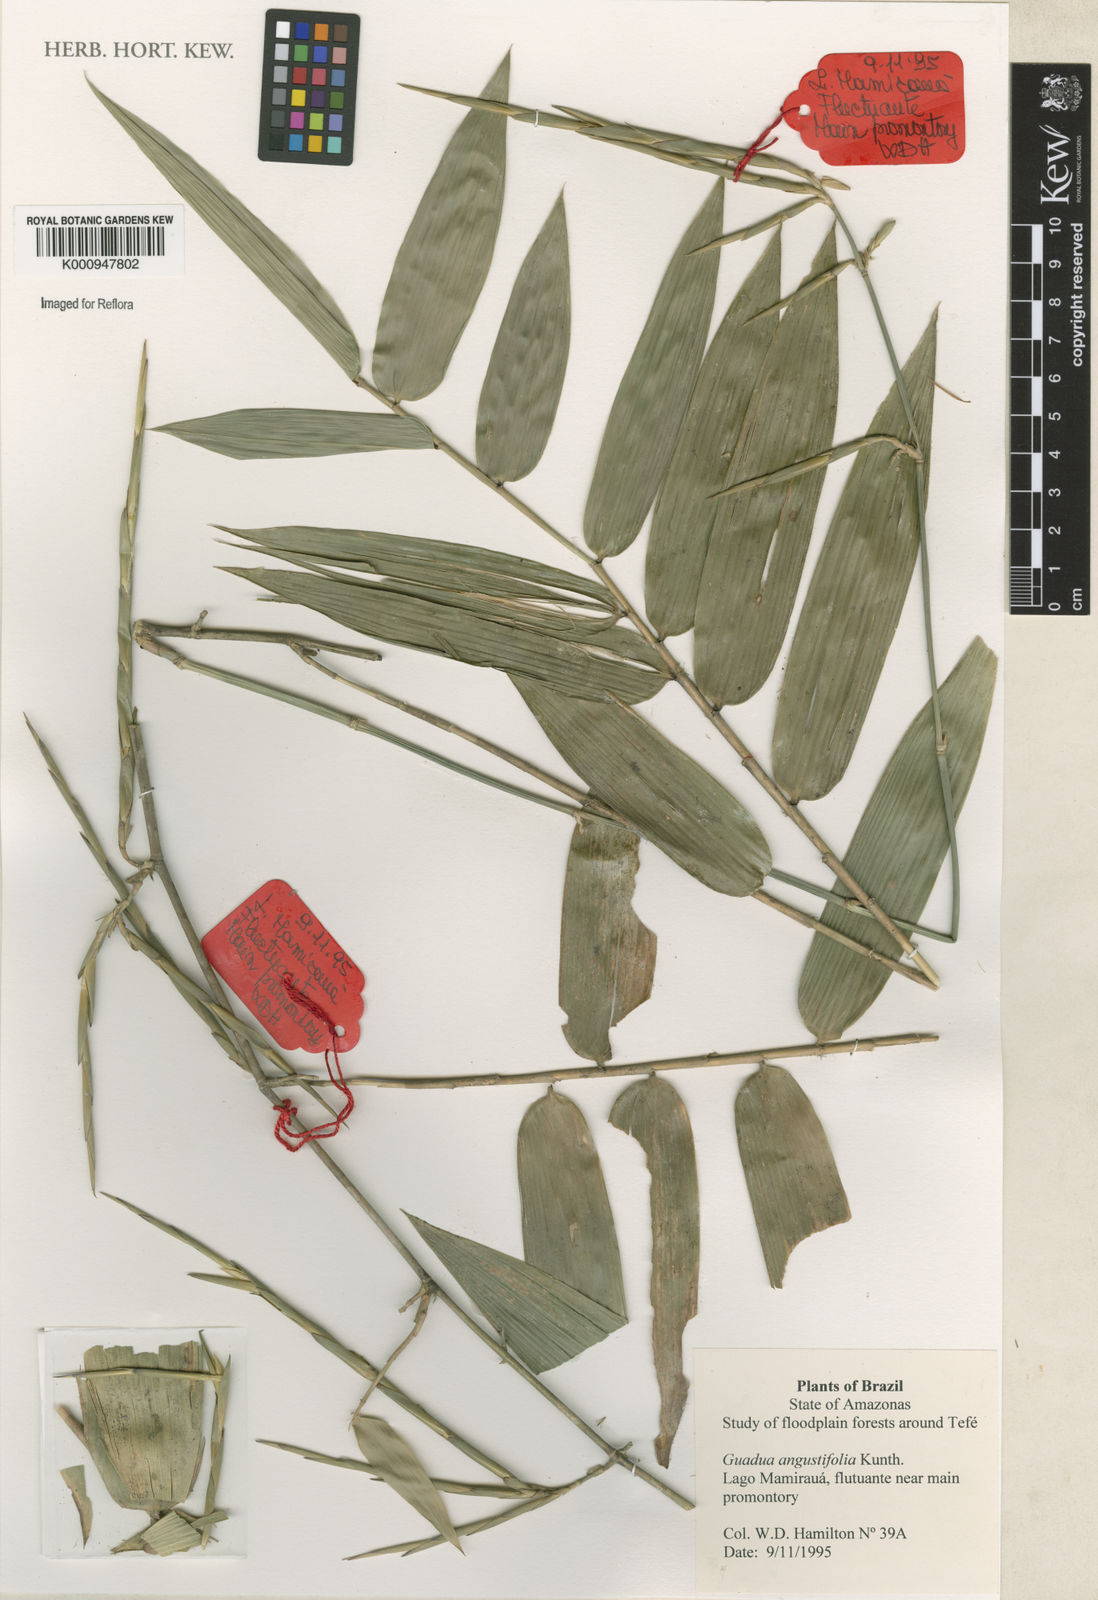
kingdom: Plantae
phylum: Tracheophyta
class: Liliopsida
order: Poales
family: Poaceae
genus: Guadua
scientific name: Guadua macrospiculata
